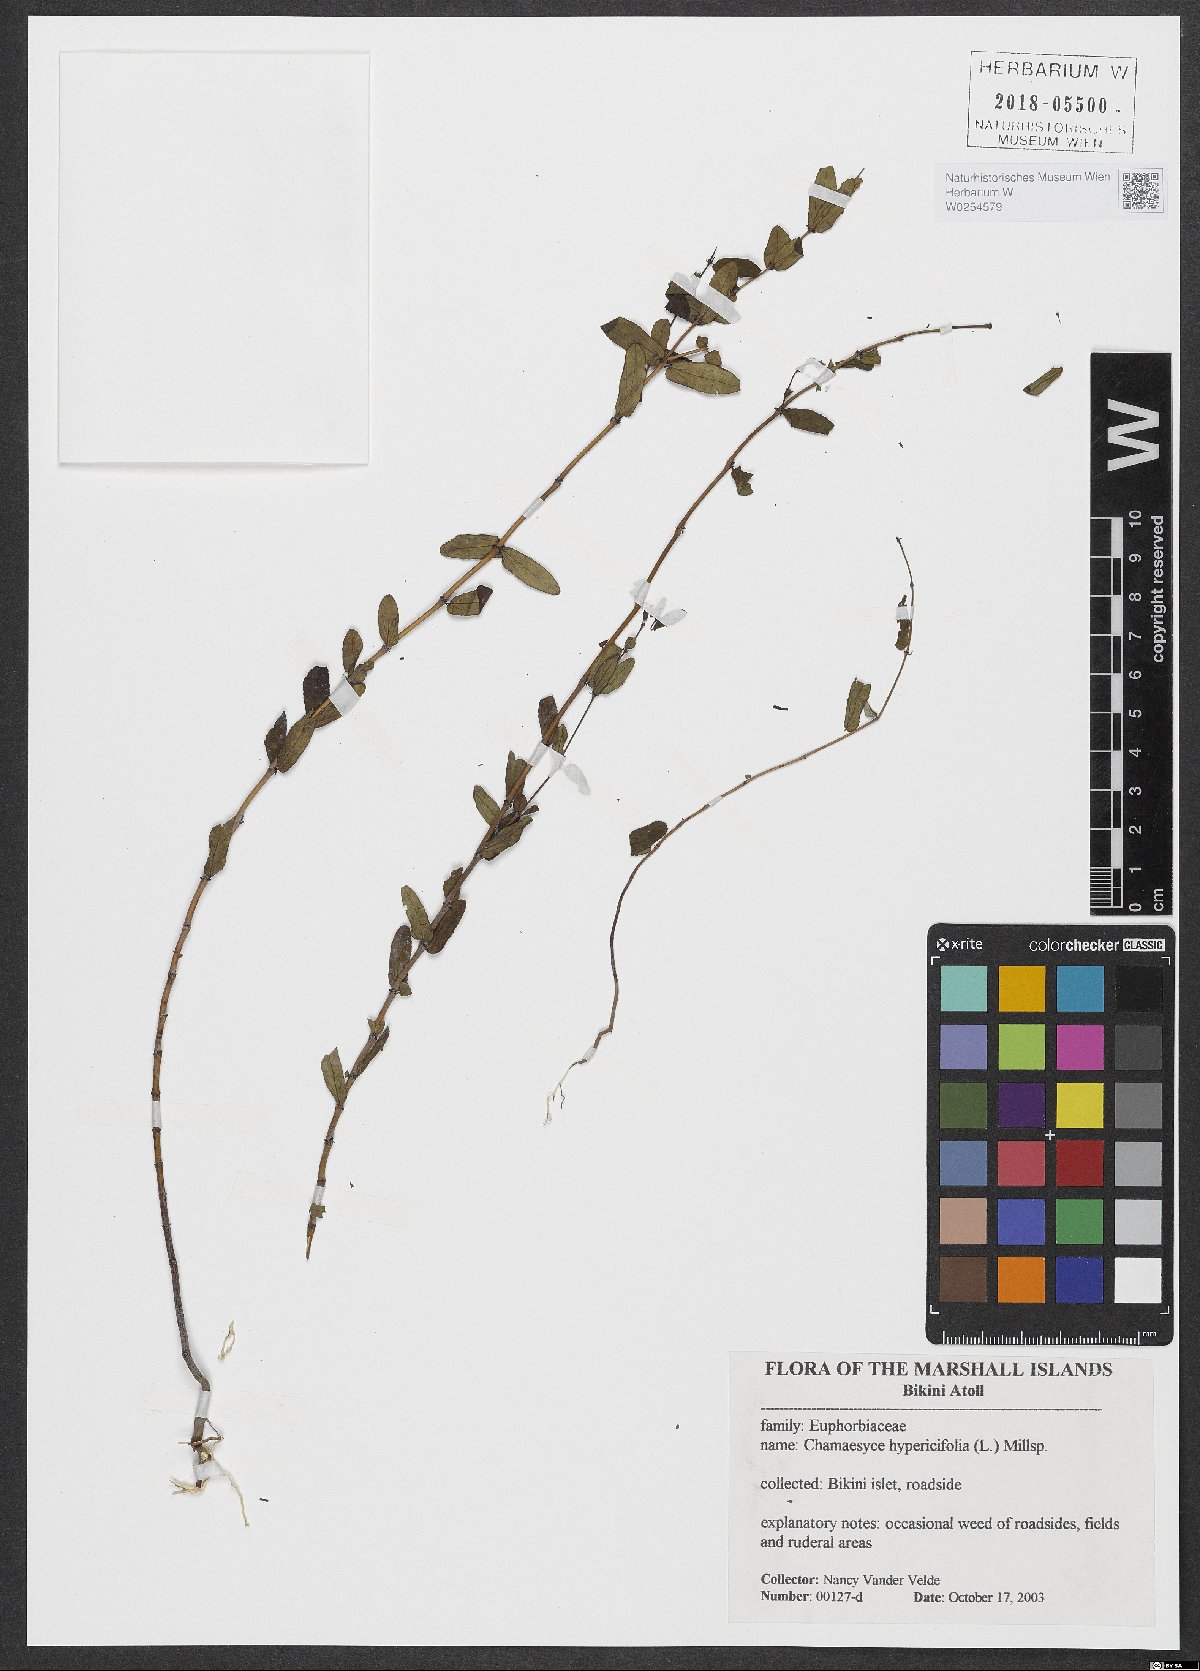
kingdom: Plantae
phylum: Tracheophyta
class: Magnoliopsida
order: Malpighiales
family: Euphorbiaceae
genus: Euphorbia
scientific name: Euphorbia hypericifolia
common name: Graceful sandmat
